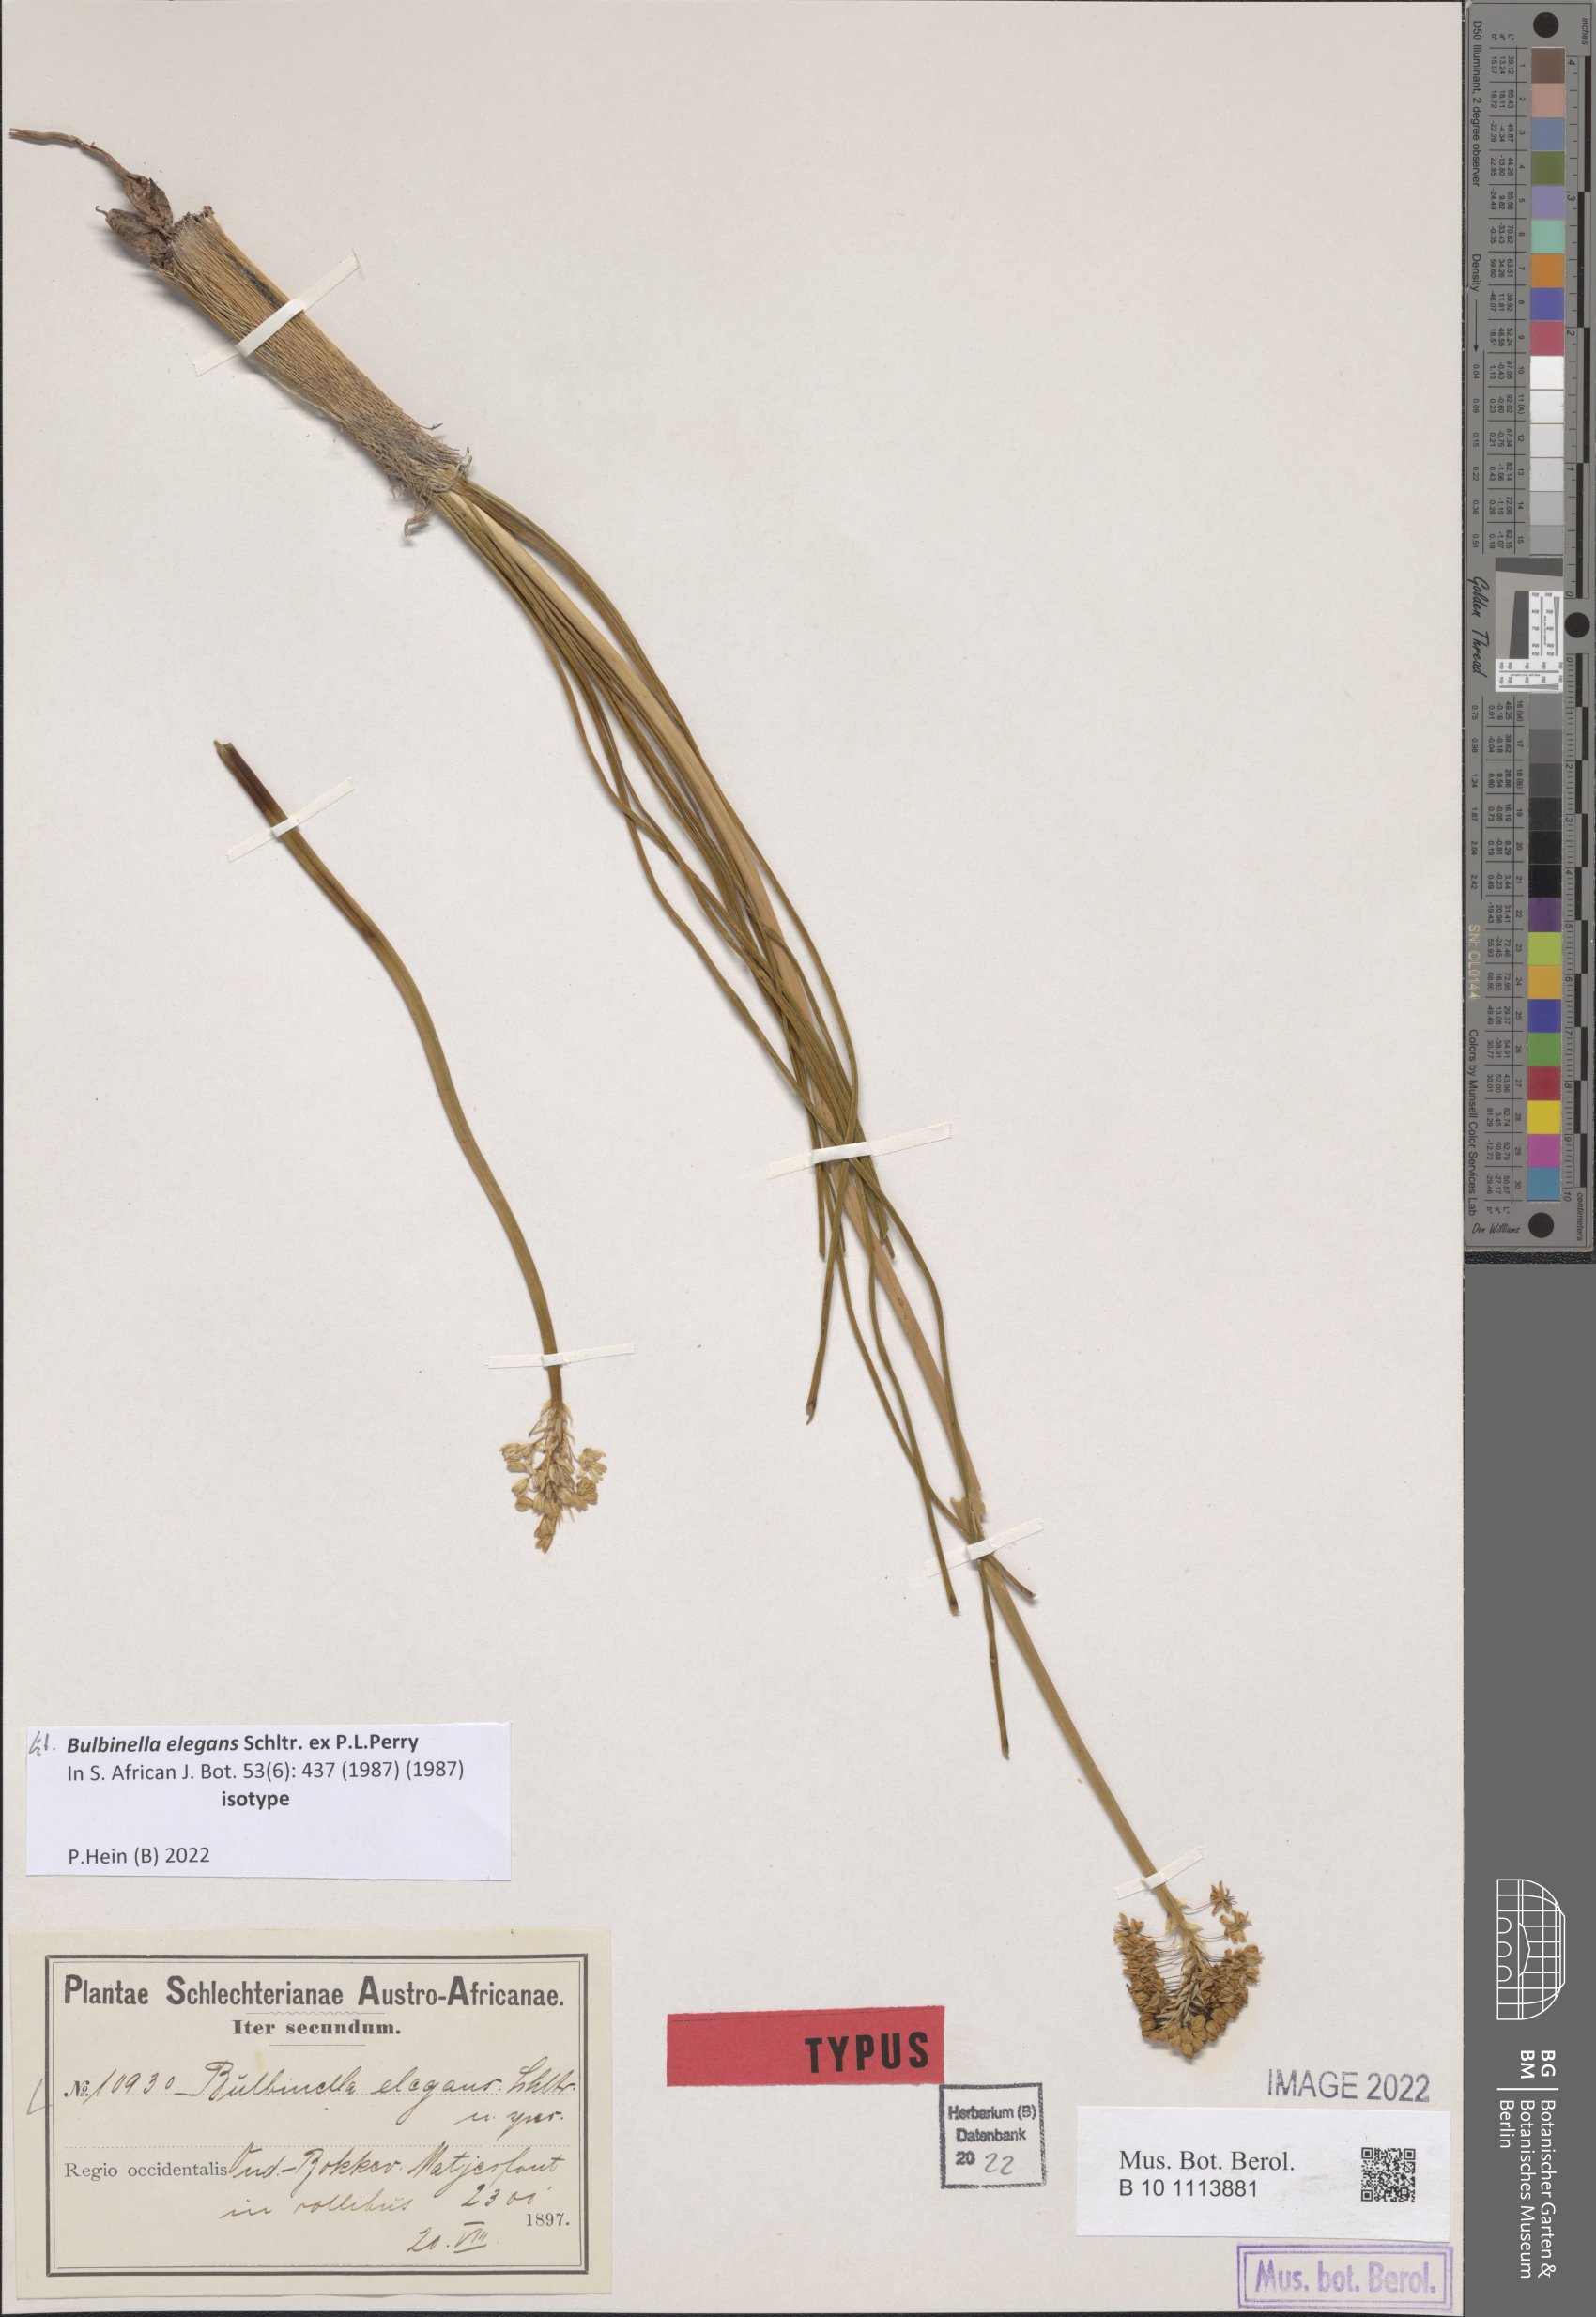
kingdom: Plantae
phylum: Tracheophyta
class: Liliopsida
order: Asparagales
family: Asphodelaceae
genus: Bulbinella
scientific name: Bulbinella elegans
